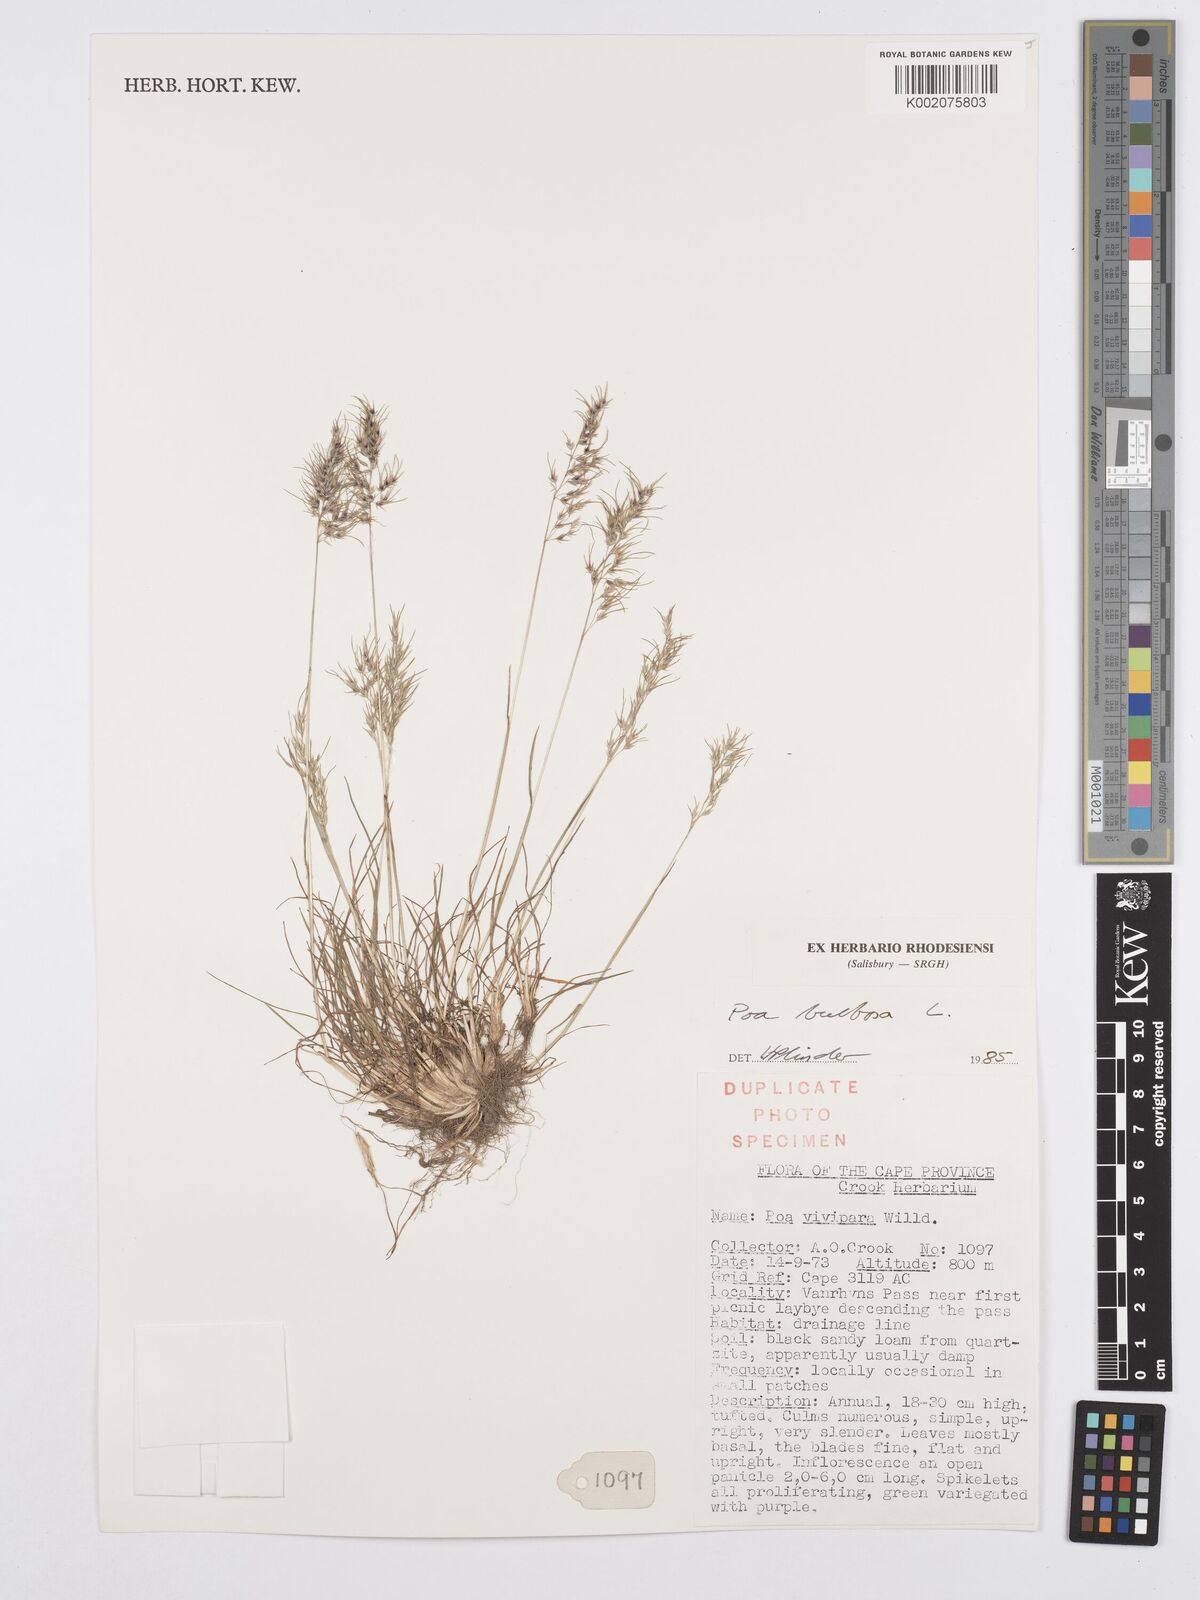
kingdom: Plantae
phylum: Tracheophyta
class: Liliopsida
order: Poales
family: Poaceae
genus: Poa
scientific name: Poa bulbosa
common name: Bulbous bluegrass
